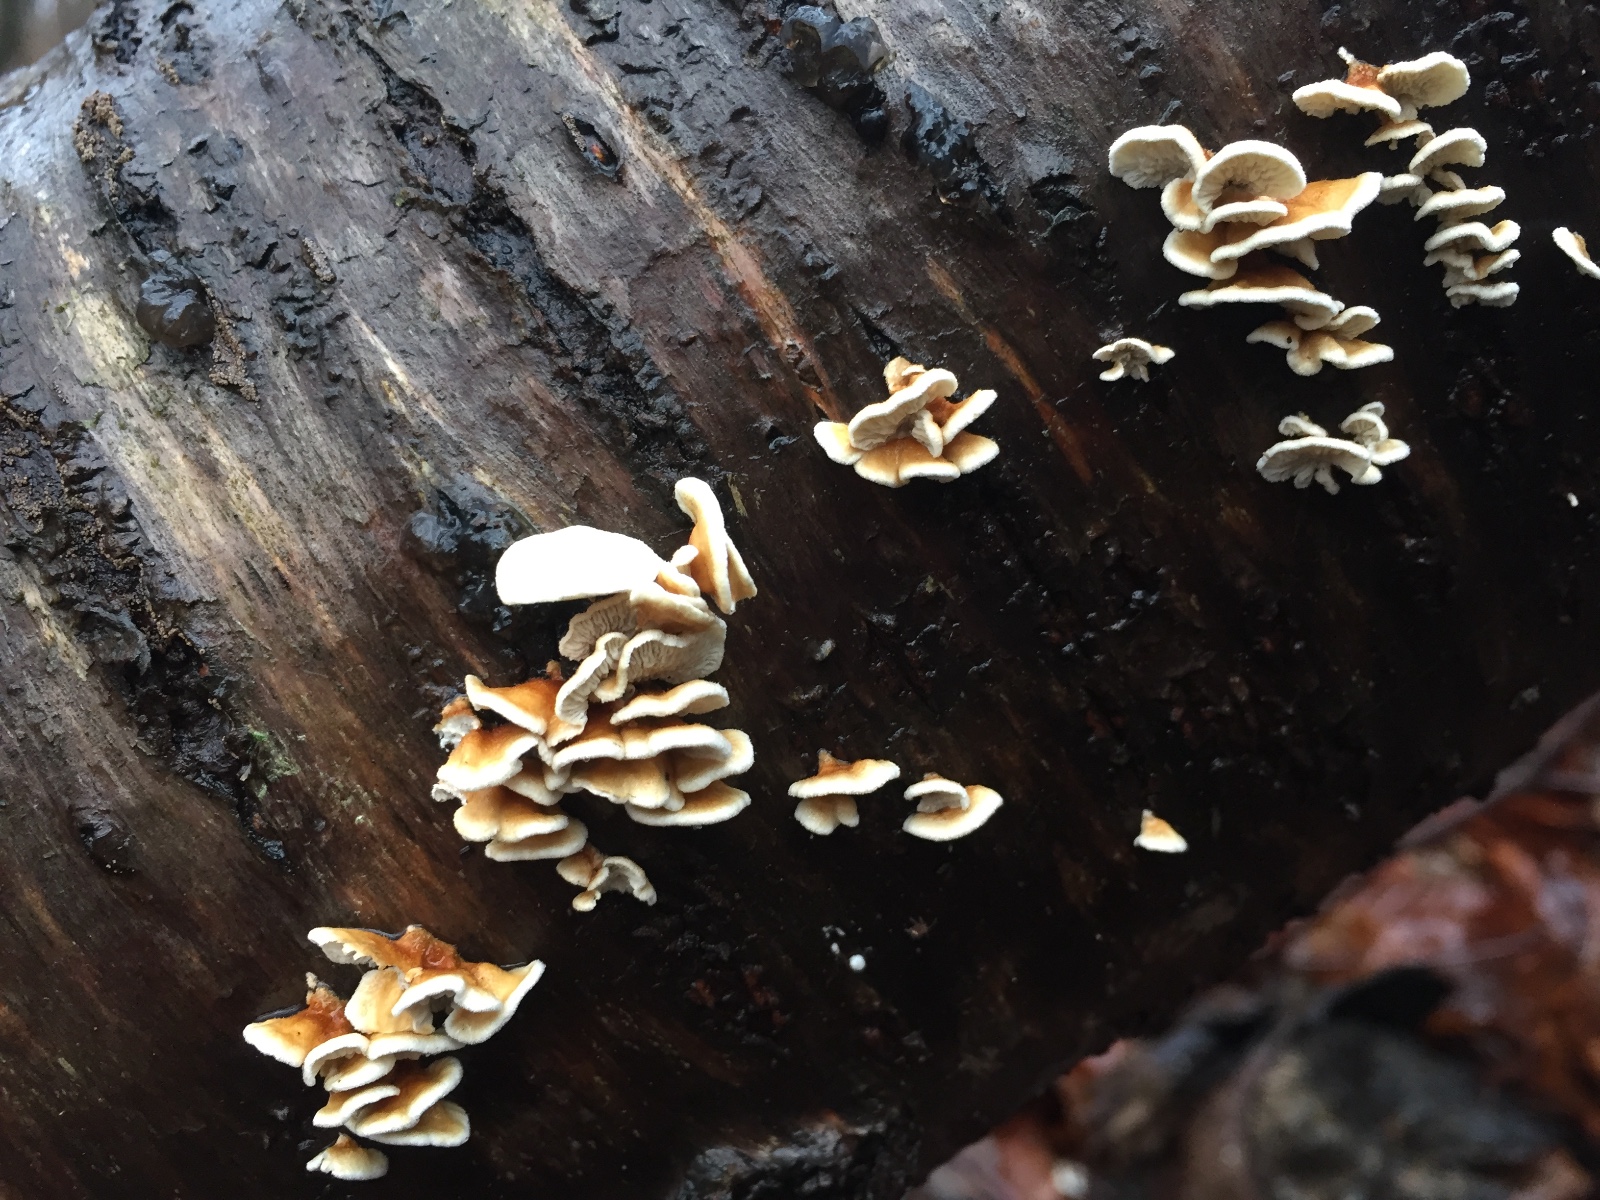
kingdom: Fungi
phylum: Basidiomycota
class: Agaricomycetes
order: Amylocorticiales
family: Amylocorticiaceae
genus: Plicaturopsis
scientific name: Plicaturopsis crispa
